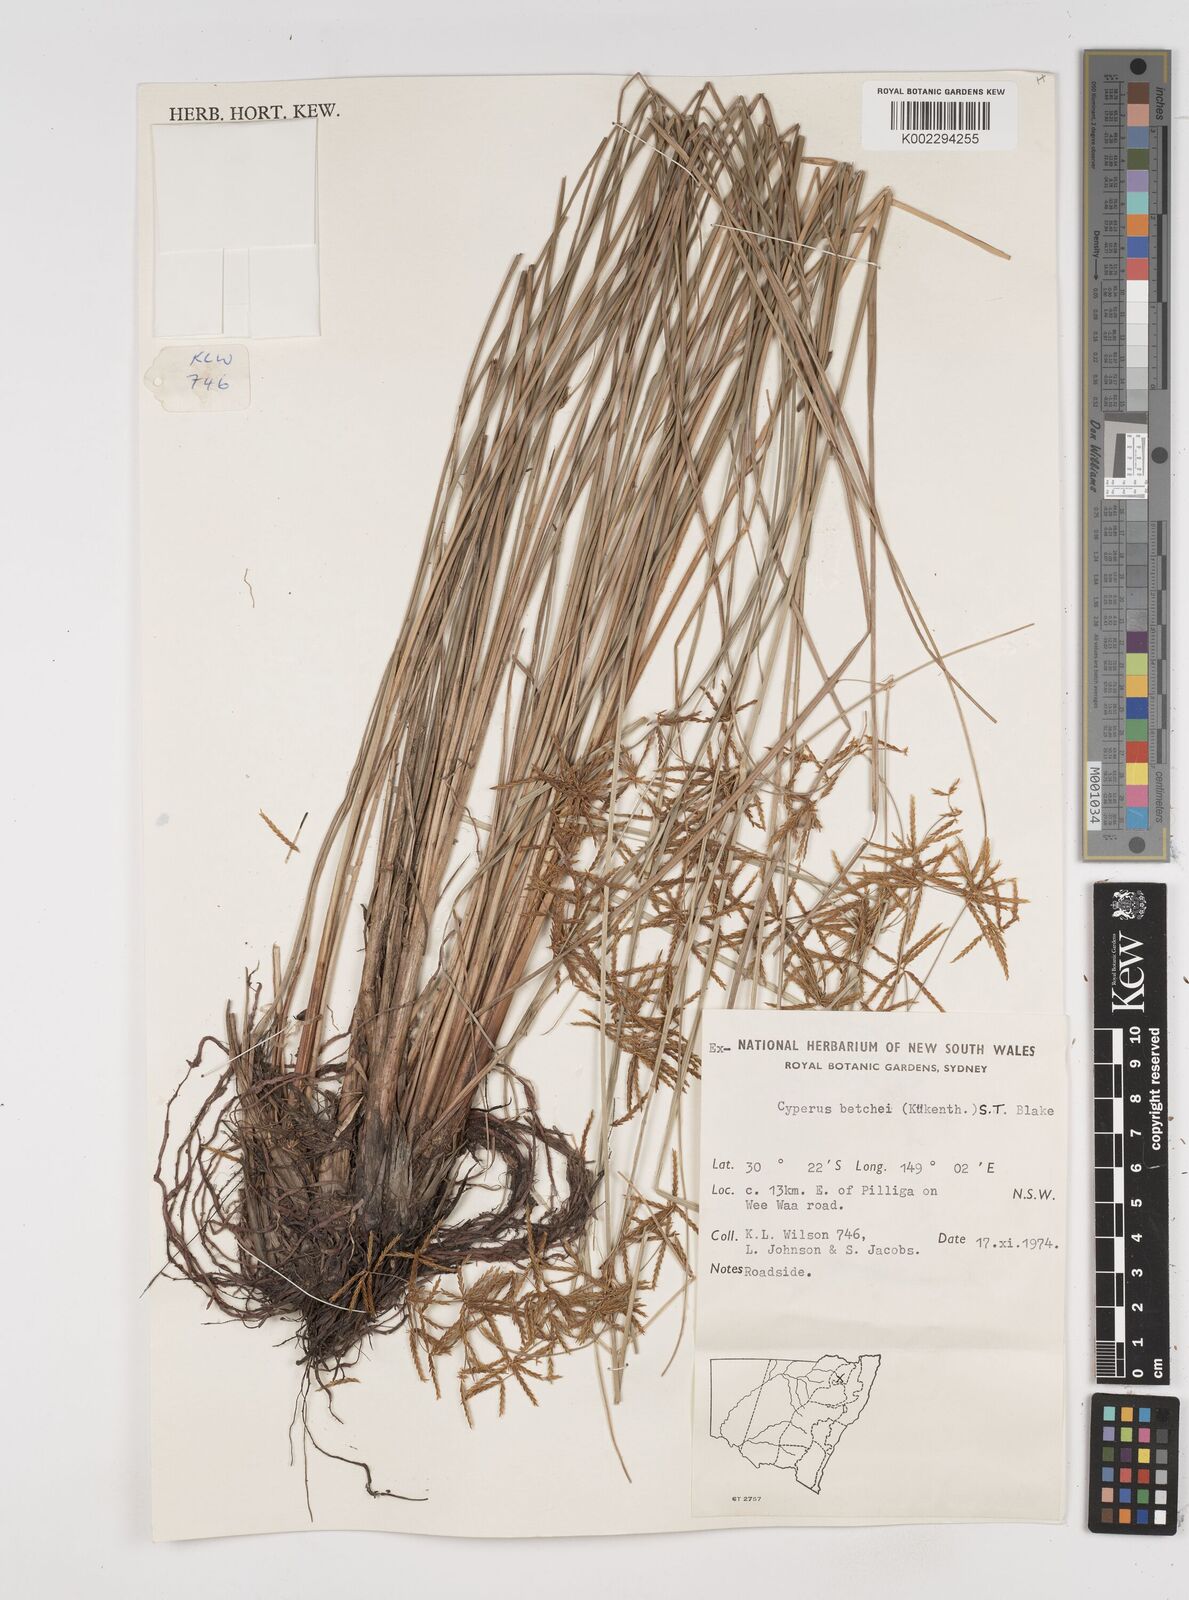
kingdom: Plantae
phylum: Tracheophyta
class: Liliopsida
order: Poales
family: Cyperaceae
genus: Cyperus
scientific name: Cyperus betchei
